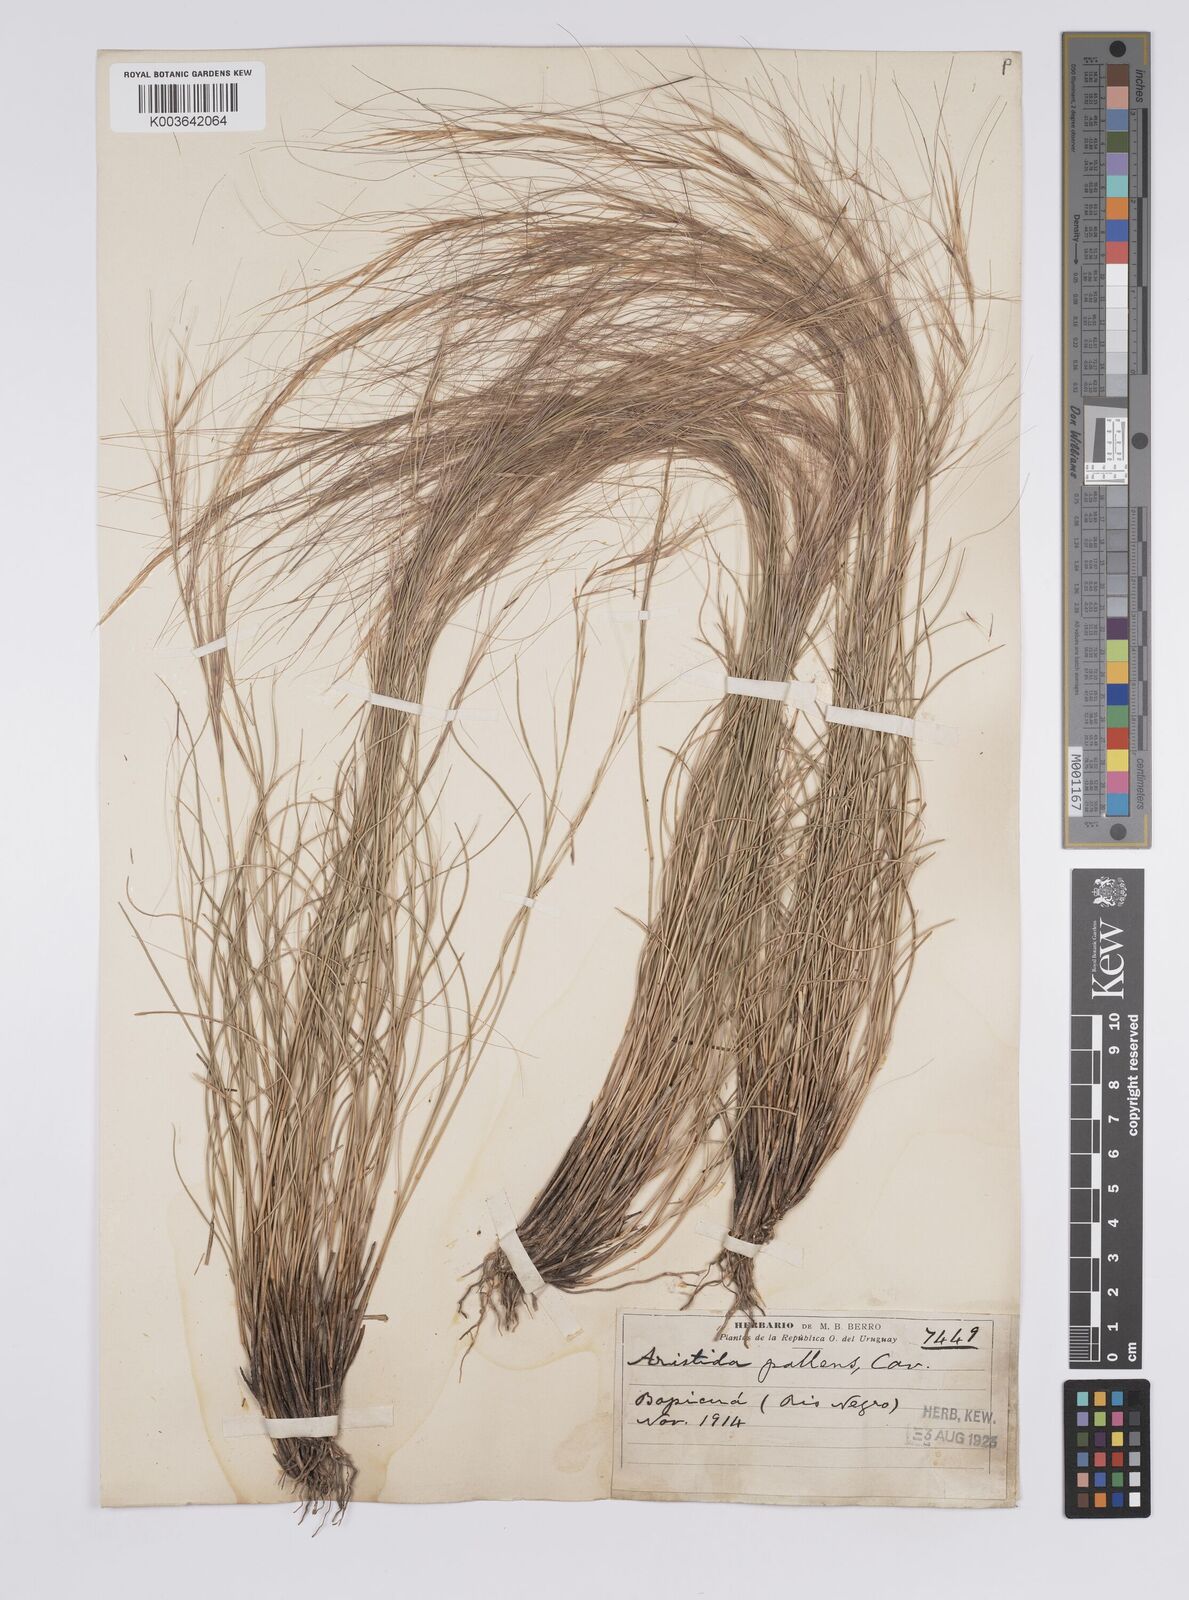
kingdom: Plantae
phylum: Tracheophyta
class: Liliopsida
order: Poales
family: Poaceae
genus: Aristida
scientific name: Aristida pallens
